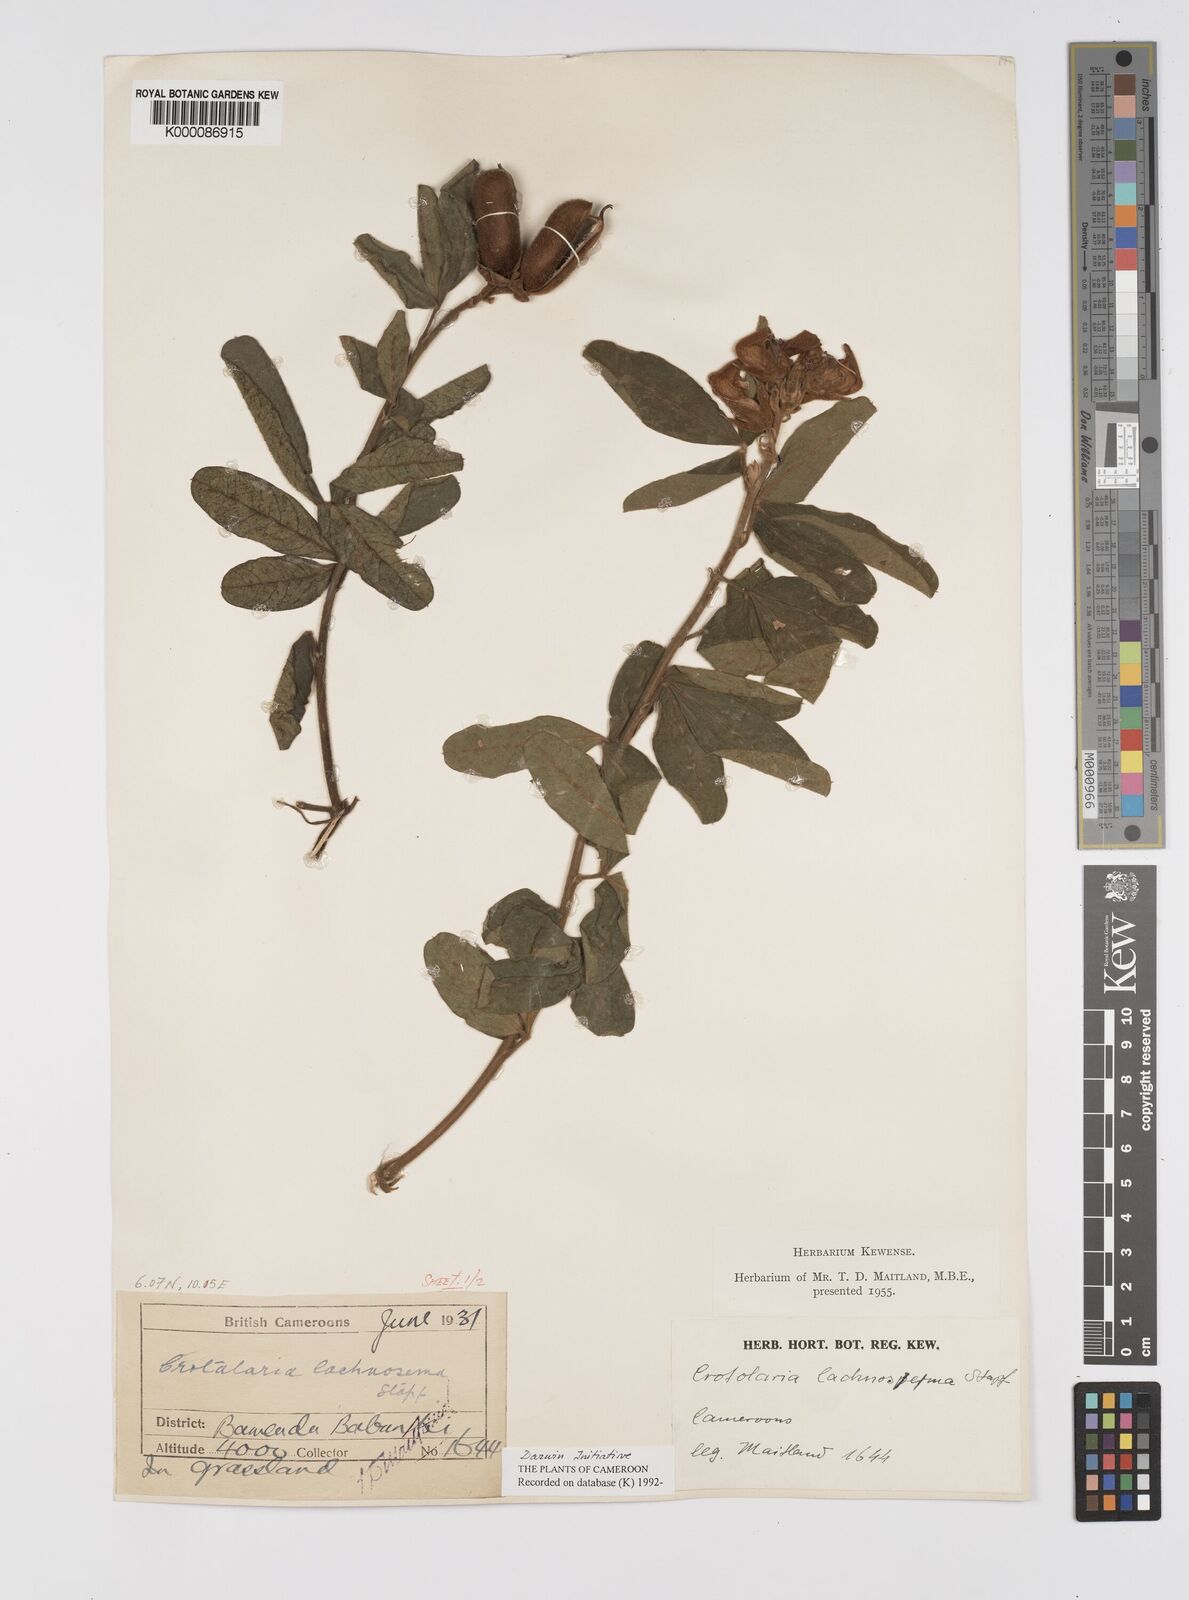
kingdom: Plantae
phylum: Tracheophyta
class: Magnoliopsida
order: Fabales
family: Fabaceae
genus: Crotalaria
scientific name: Crotalaria lachnosema
